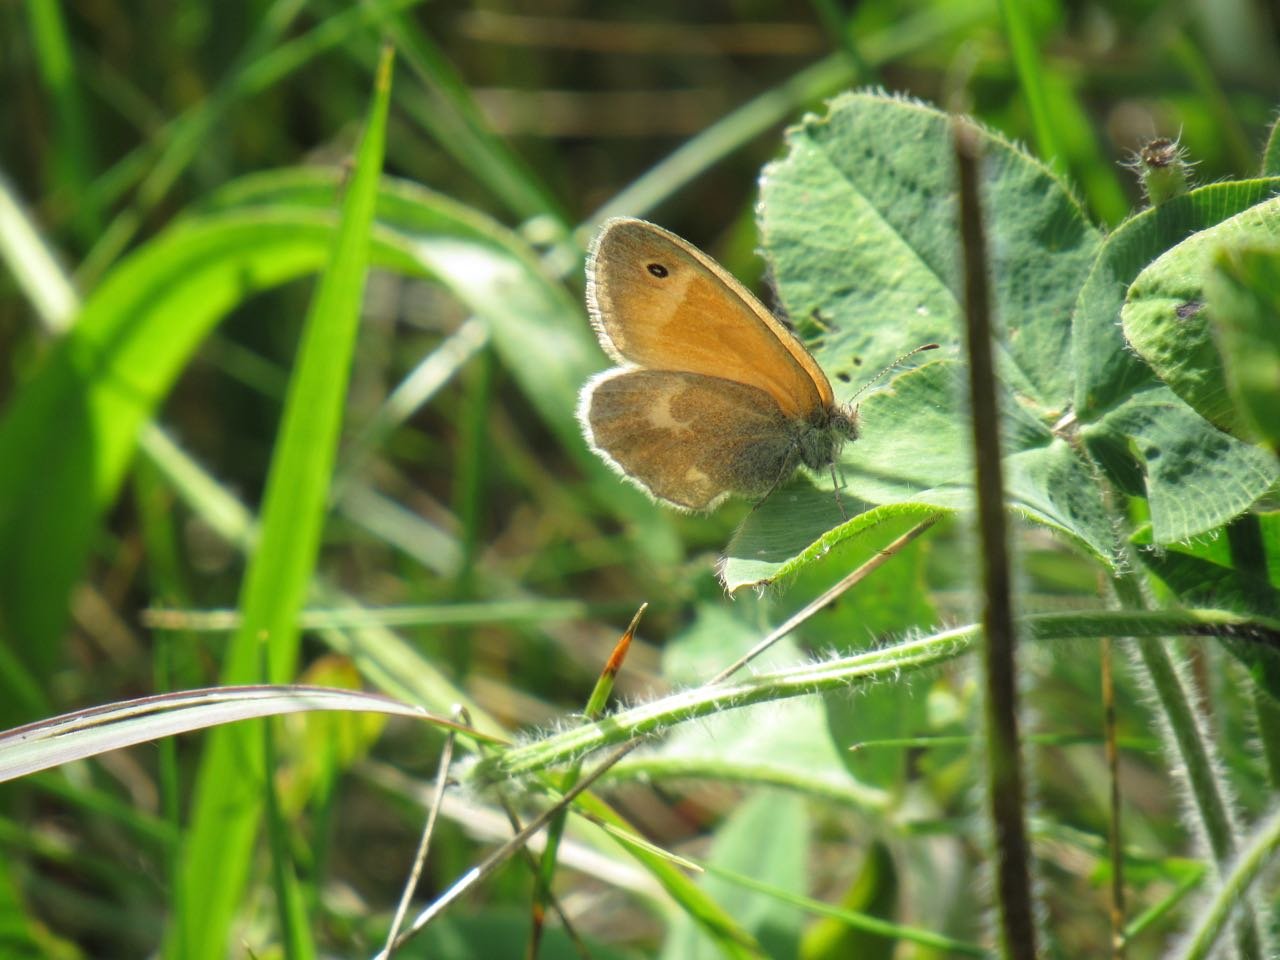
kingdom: Animalia
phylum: Arthropoda
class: Insecta
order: Lepidoptera
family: Nymphalidae
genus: Coenonympha
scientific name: Coenonympha tullia
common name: Large Heath
